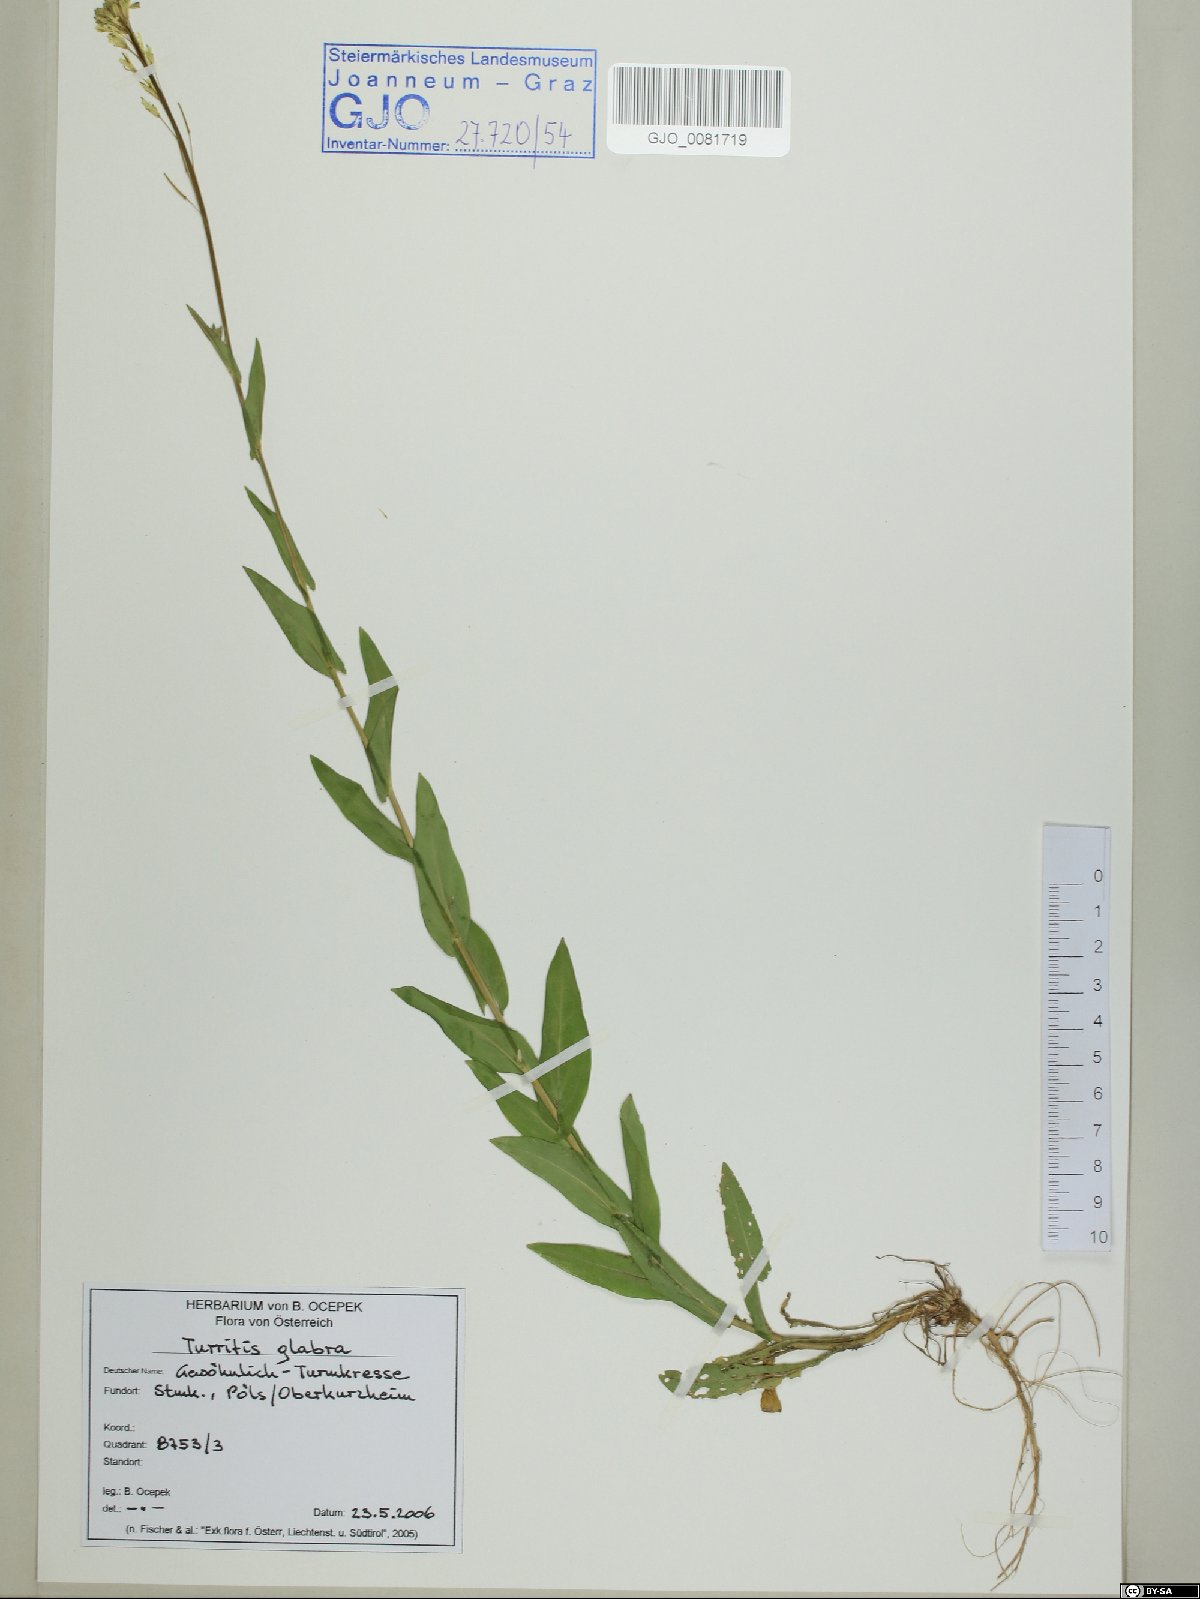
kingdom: Plantae
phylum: Tracheophyta
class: Magnoliopsida
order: Brassicales
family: Brassicaceae
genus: Turritis
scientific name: Turritis glabra
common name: Tower rockcress
